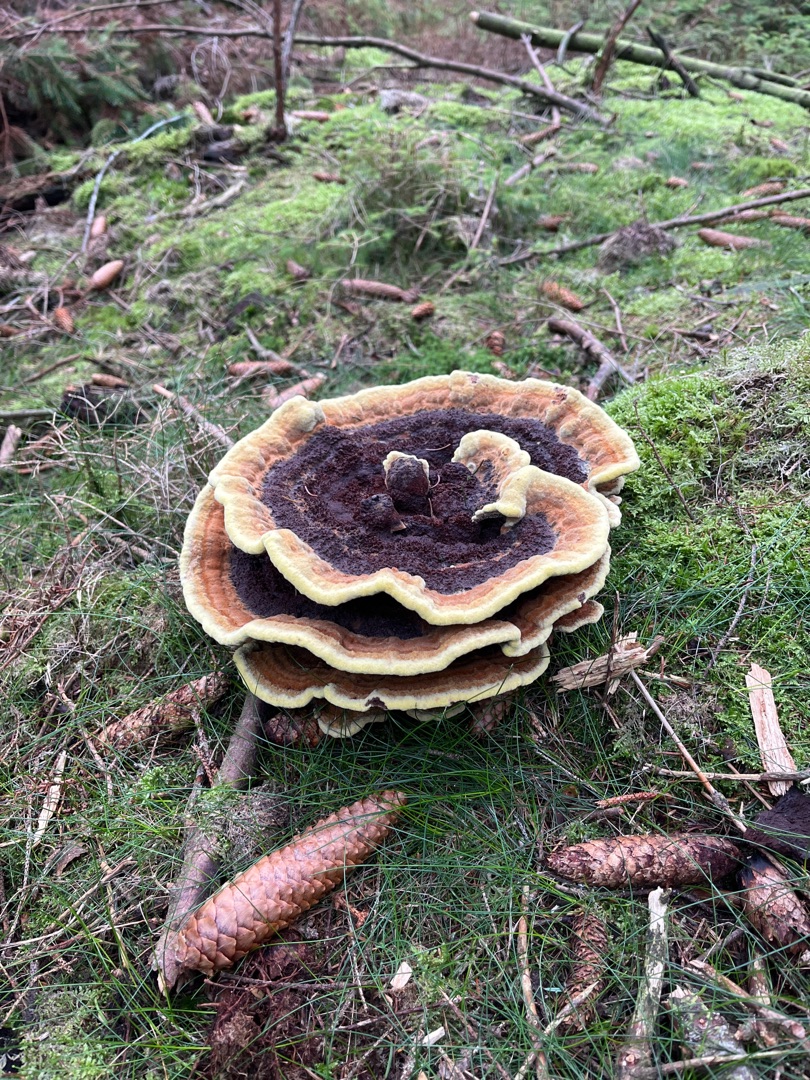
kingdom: Fungi
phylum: Basidiomycota
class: Agaricomycetes
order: Polyporales
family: Laetiporaceae
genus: Phaeolus
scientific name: Phaeolus schweinitzii
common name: Brunporesvamp
